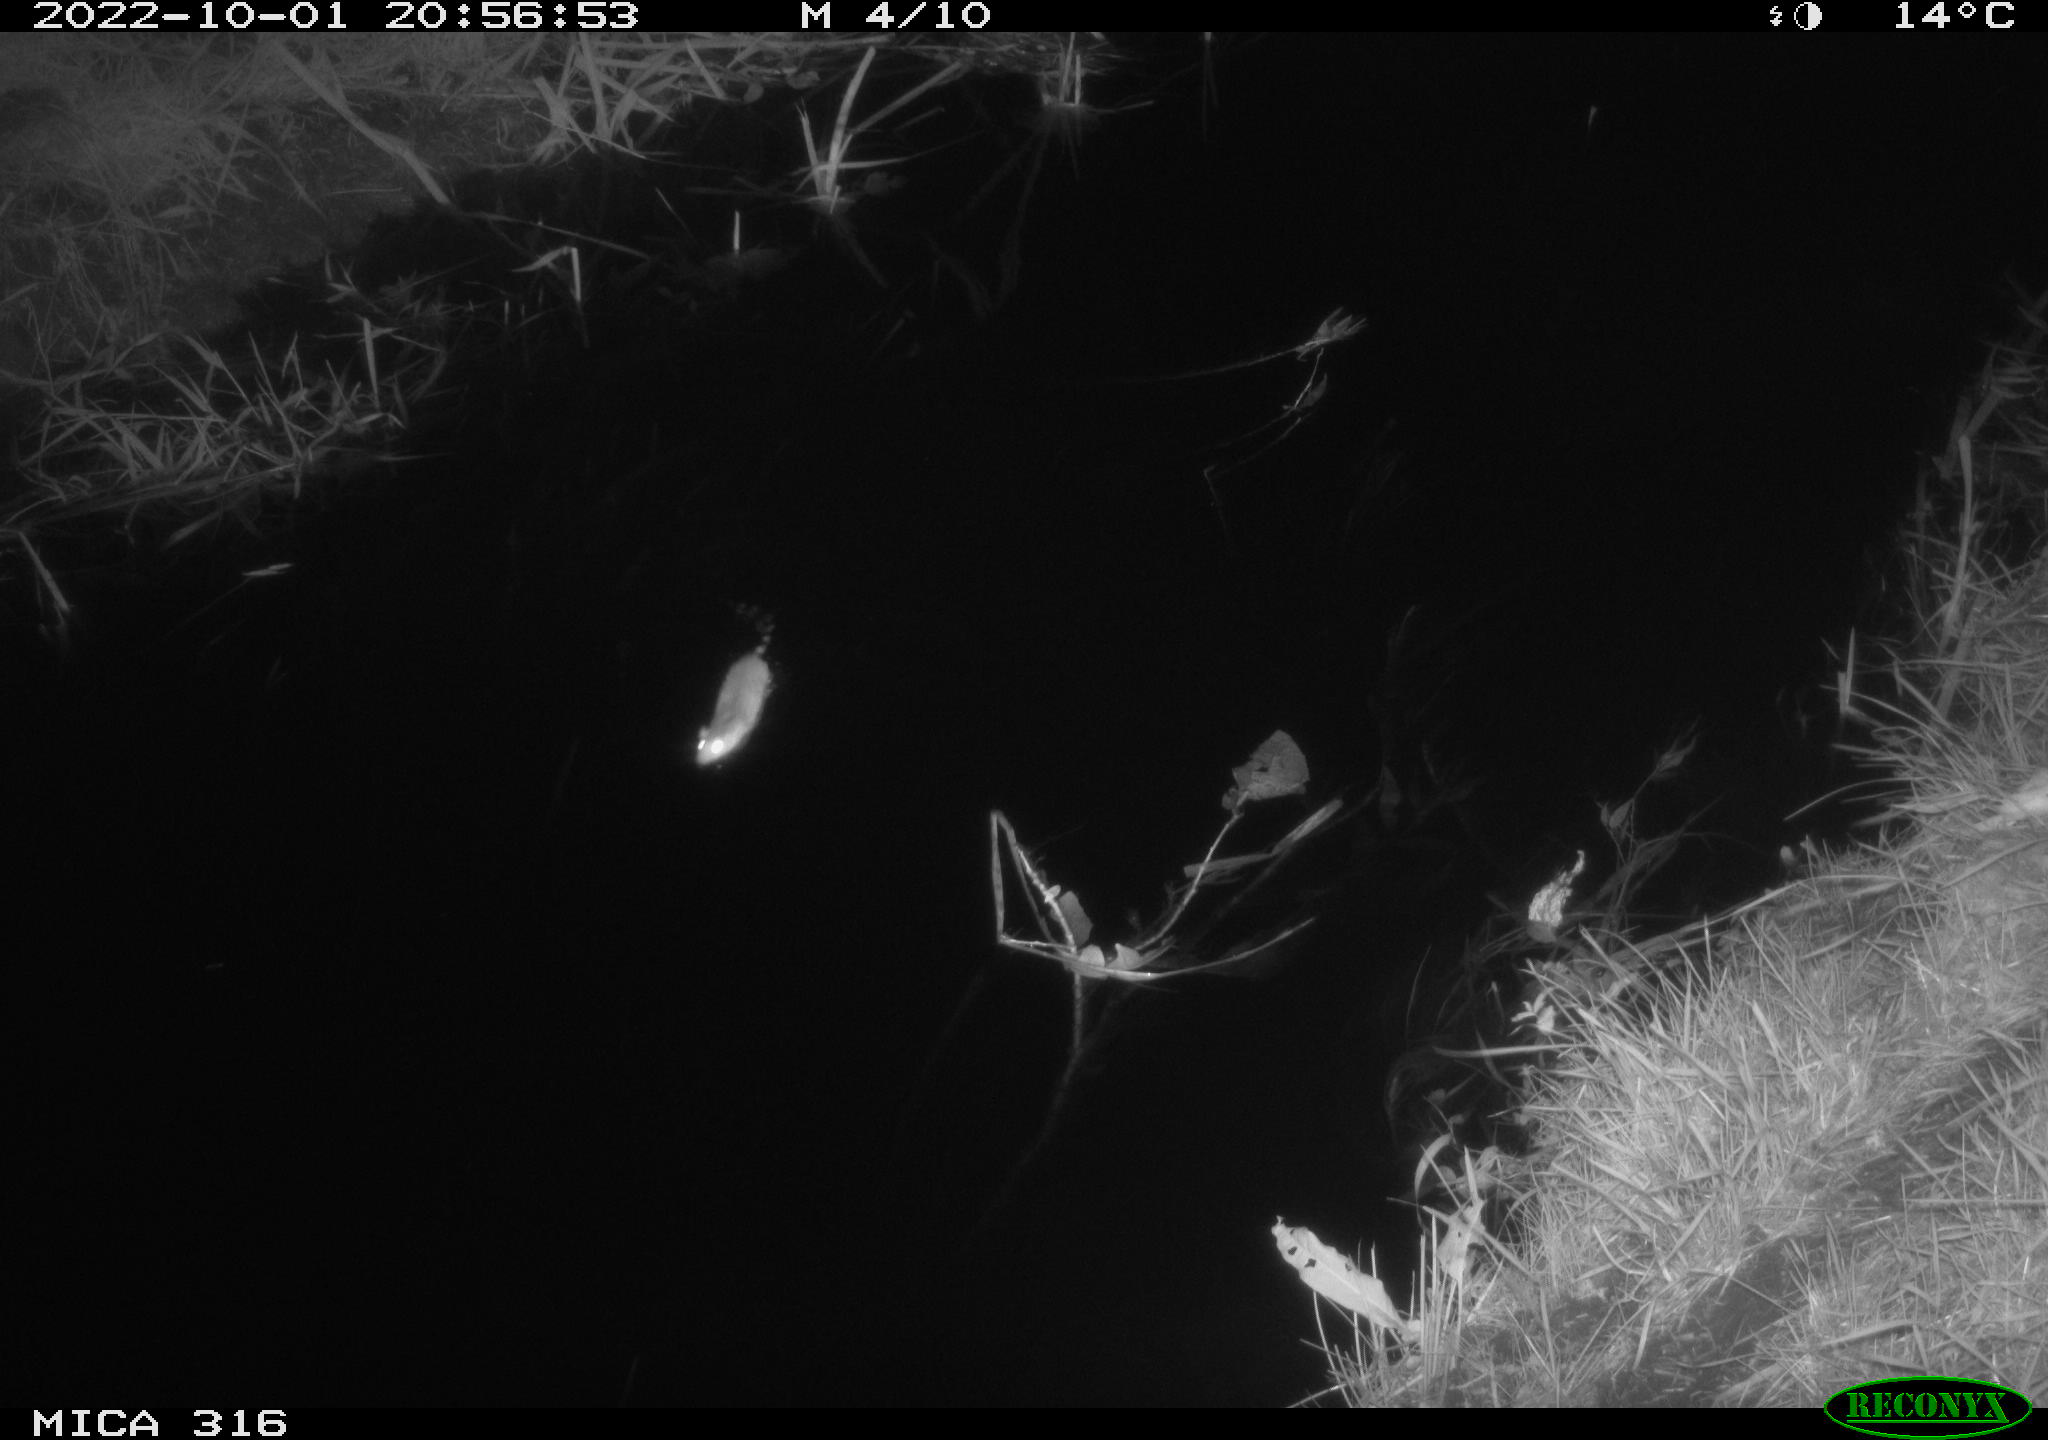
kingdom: Animalia
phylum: Chordata
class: Mammalia
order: Rodentia
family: Muridae
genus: Rattus
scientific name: Rattus norvegicus
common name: Brown rat
